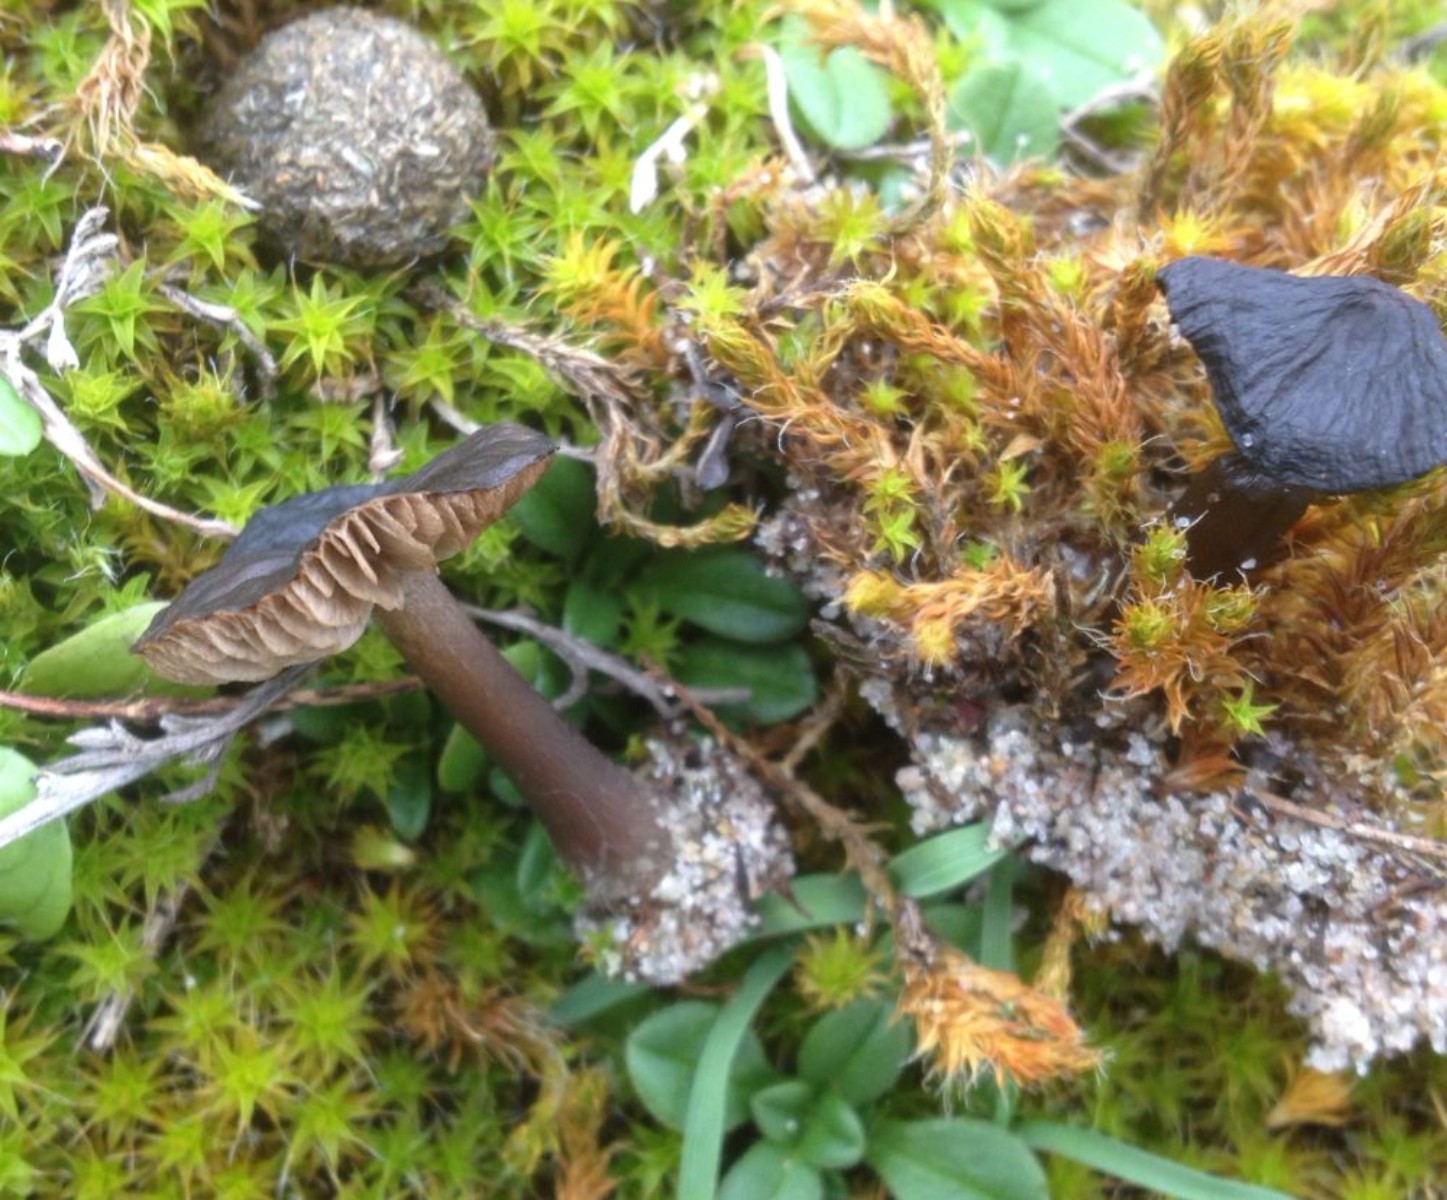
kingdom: Fungi
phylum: Basidiomycota
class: Agaricomycetes
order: Agaricales
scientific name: Agaricales
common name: champignonordenen
